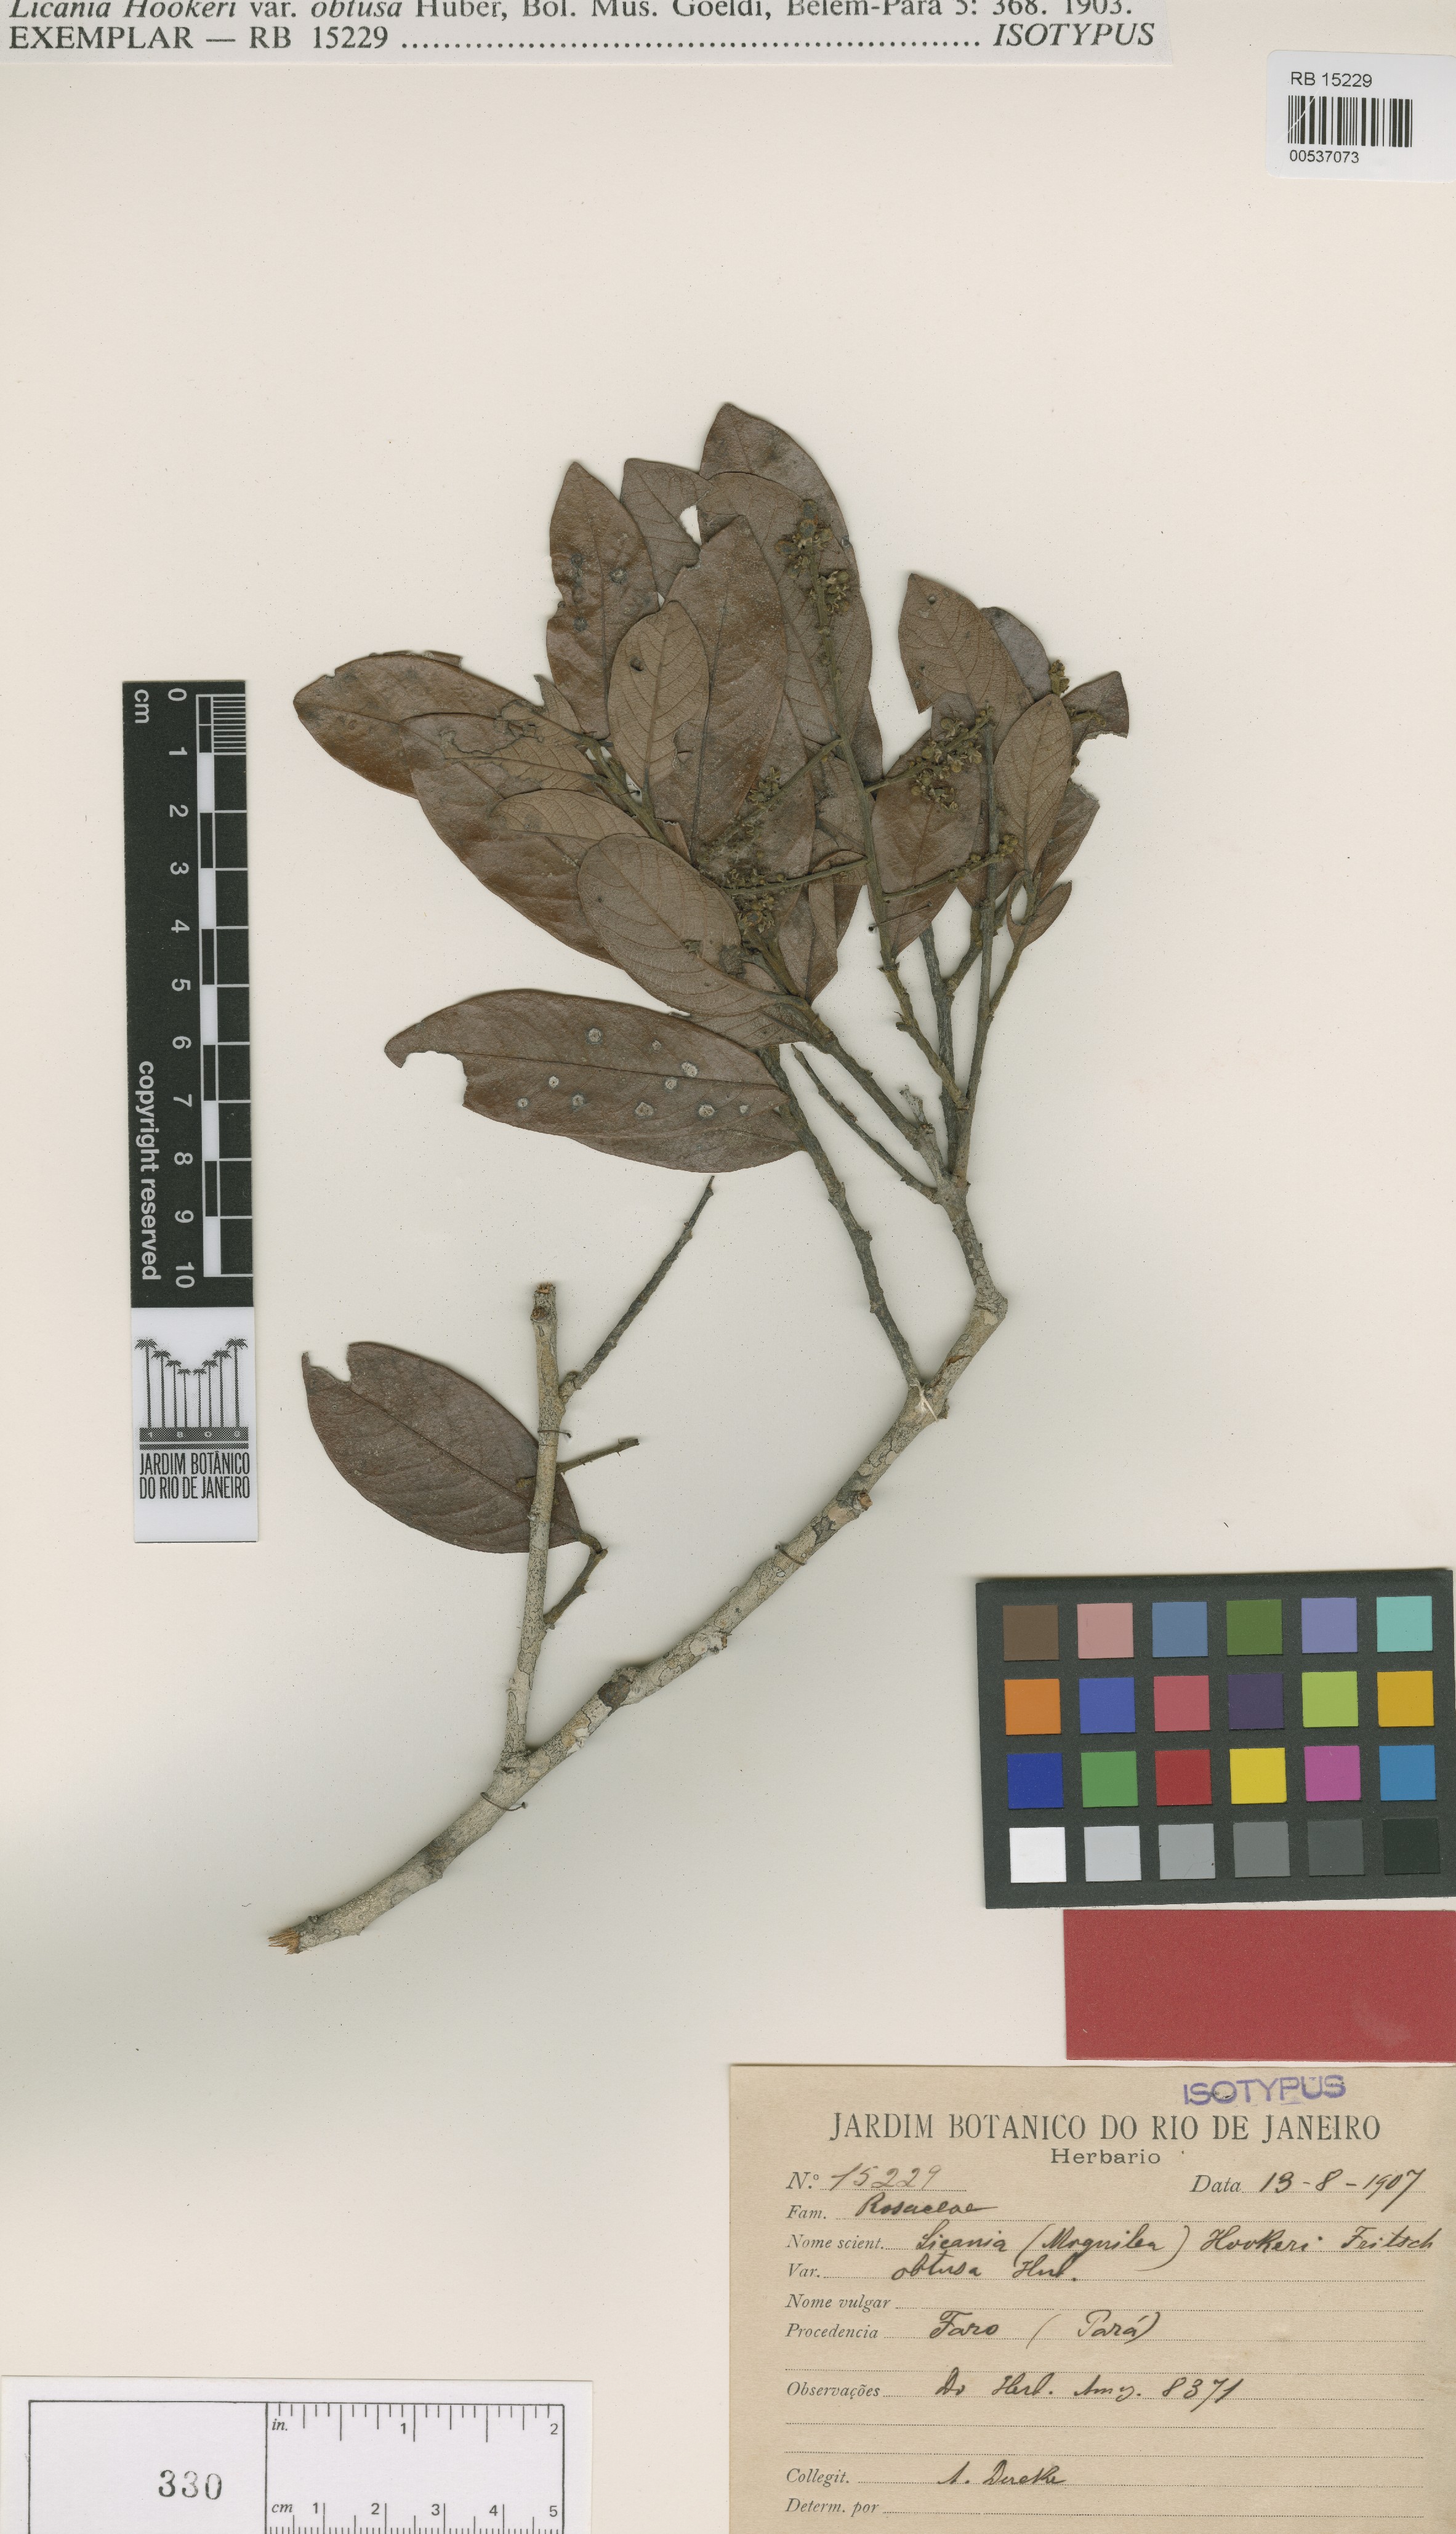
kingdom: Plantae
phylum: Tracheophyta
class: Magnoliopsida
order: Malpighiales
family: Chrysobalanaceae
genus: Leptobalanus
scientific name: Leptobalanus octandrus
